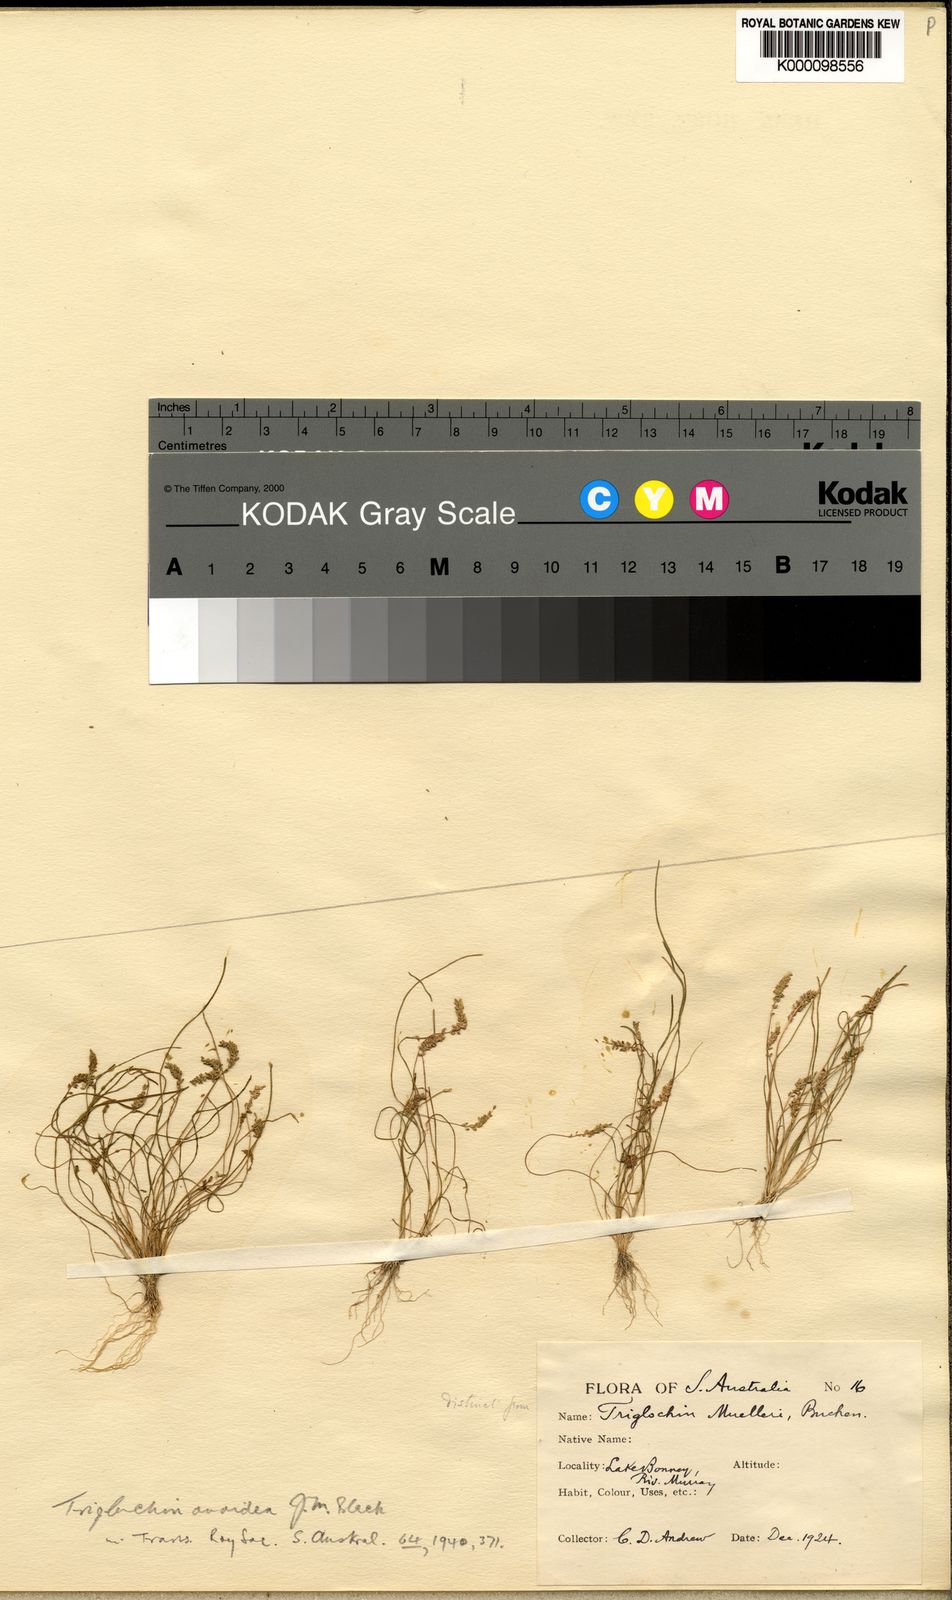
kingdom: Plantae
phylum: Tracheophyta
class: Liliopsida
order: Alismatales
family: Juncaginaceae
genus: Triglochin
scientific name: Triglochin hexagona
